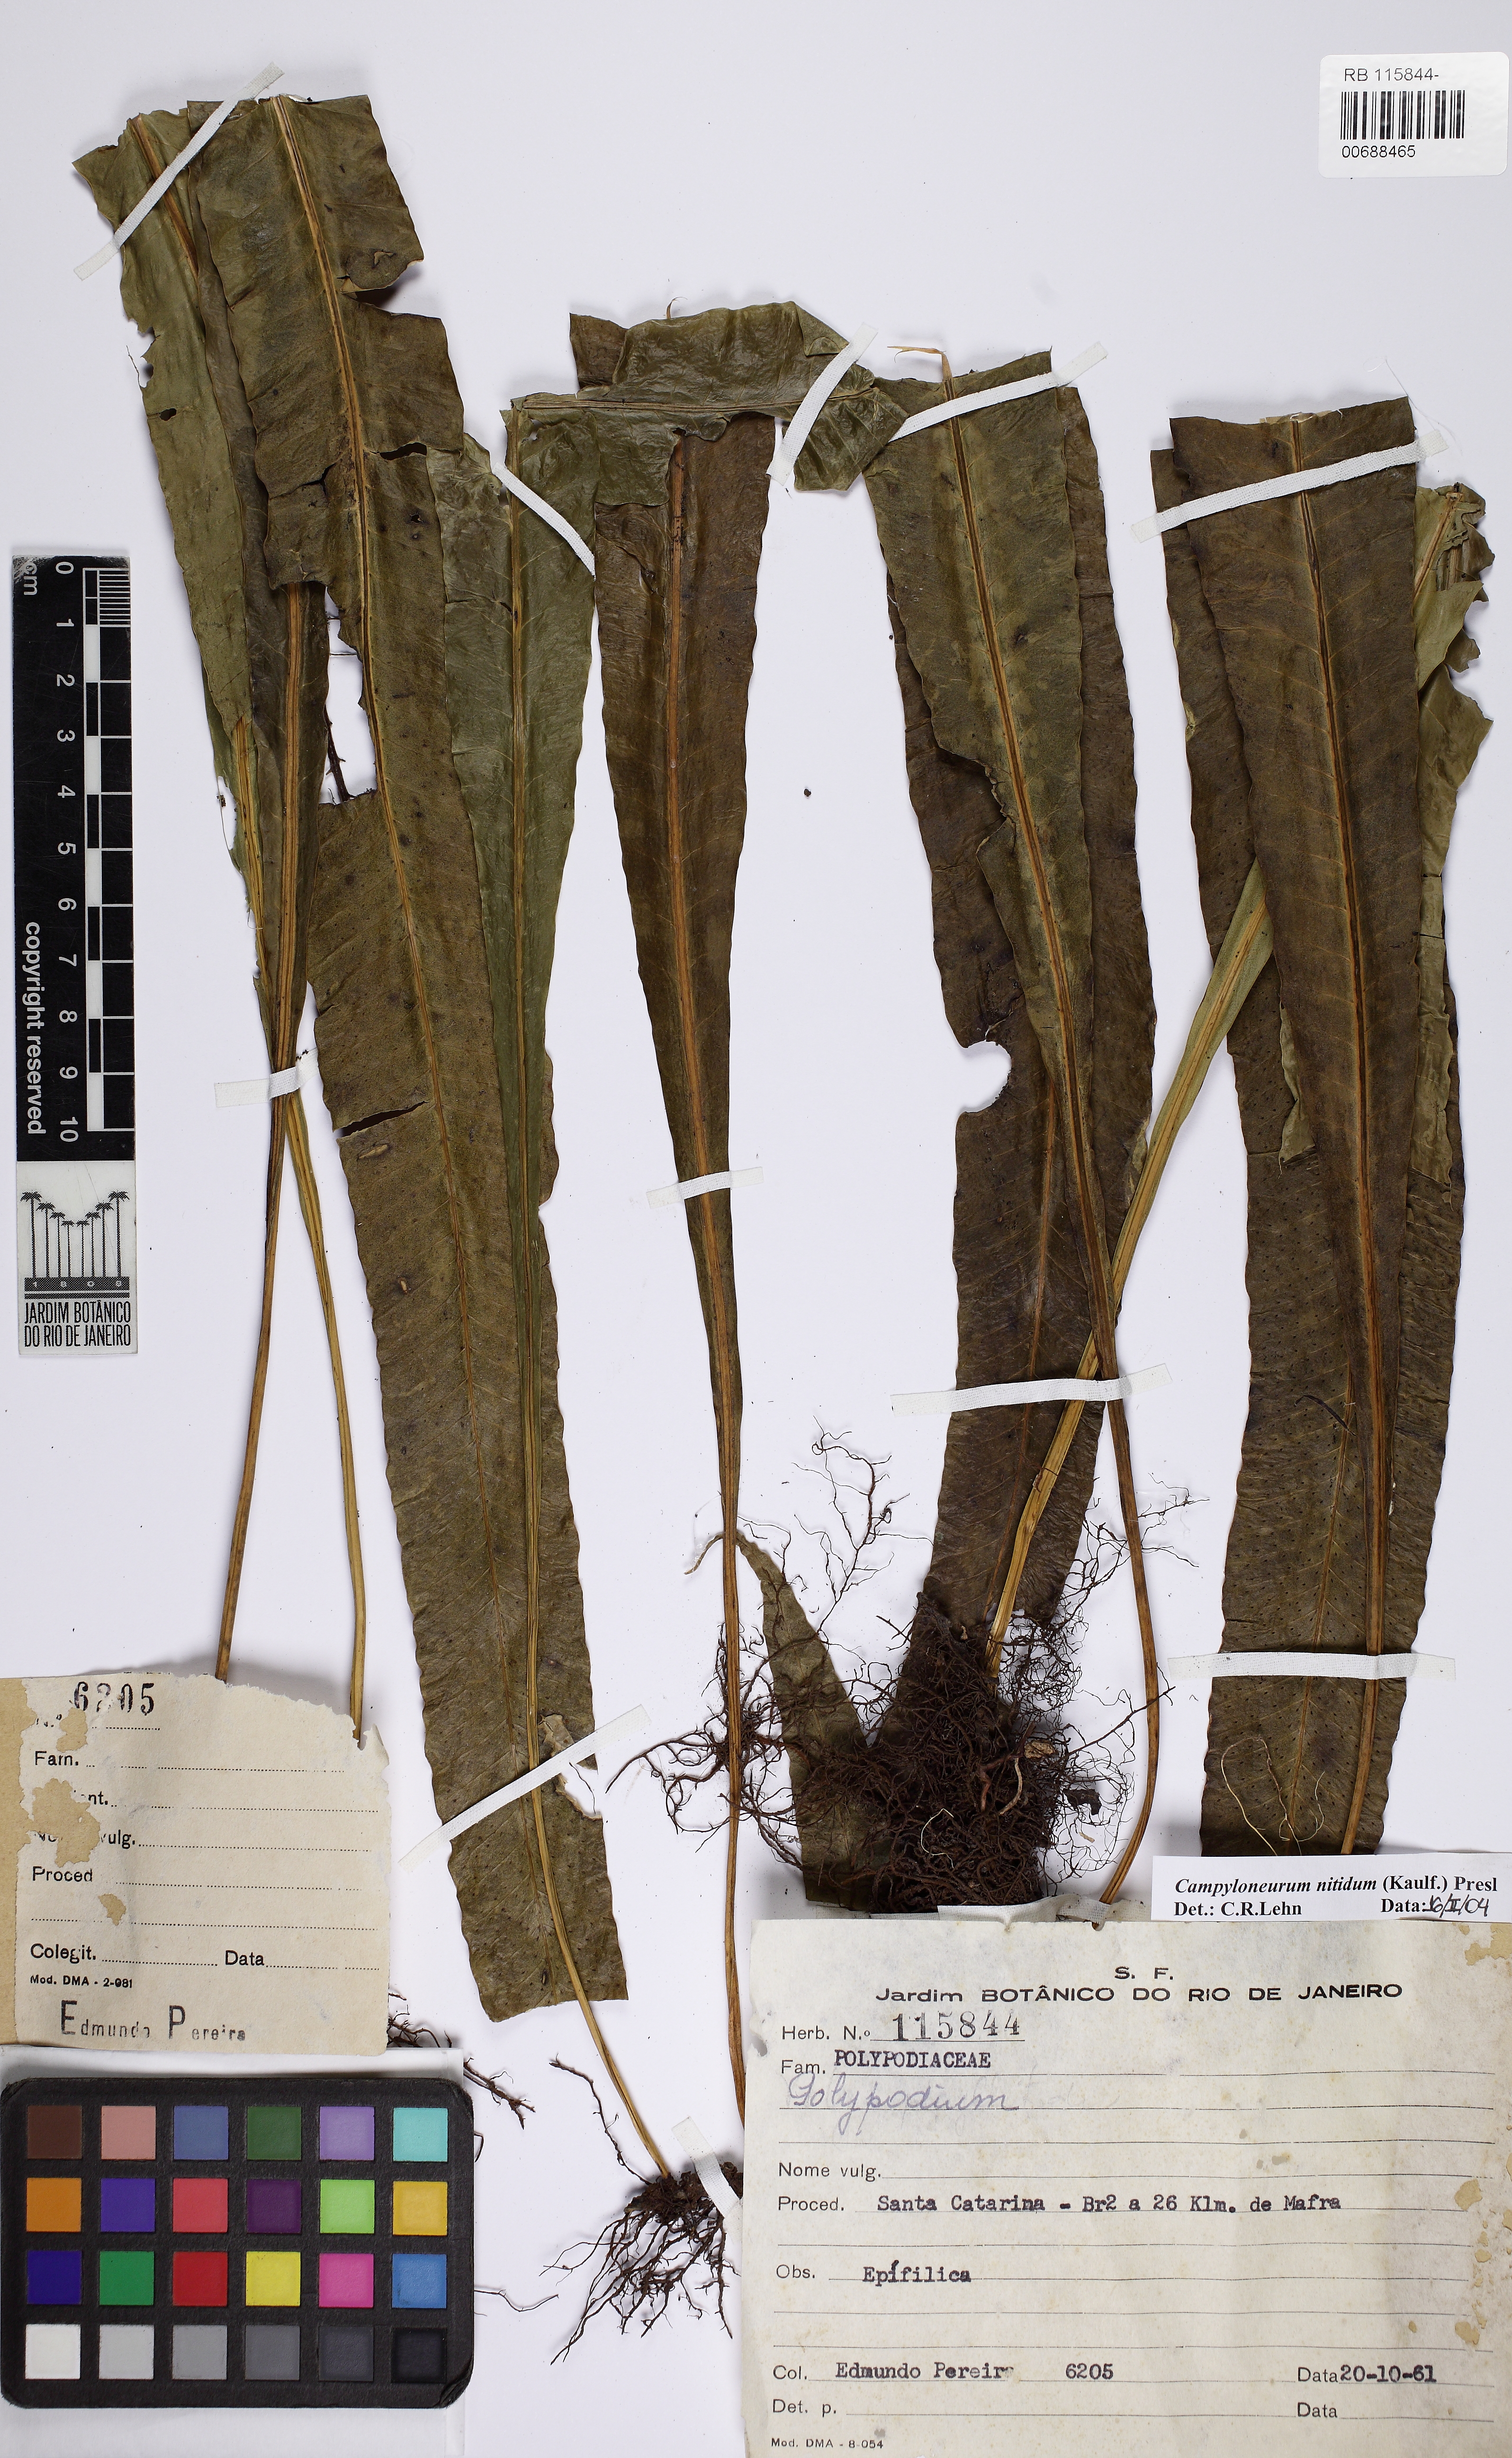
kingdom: Plantae
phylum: Tracheophyta
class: Polypodiopsida
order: Polypodiales
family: Polypodiaceae
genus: Campyloneurum
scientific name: Campyloneurum nitidum
